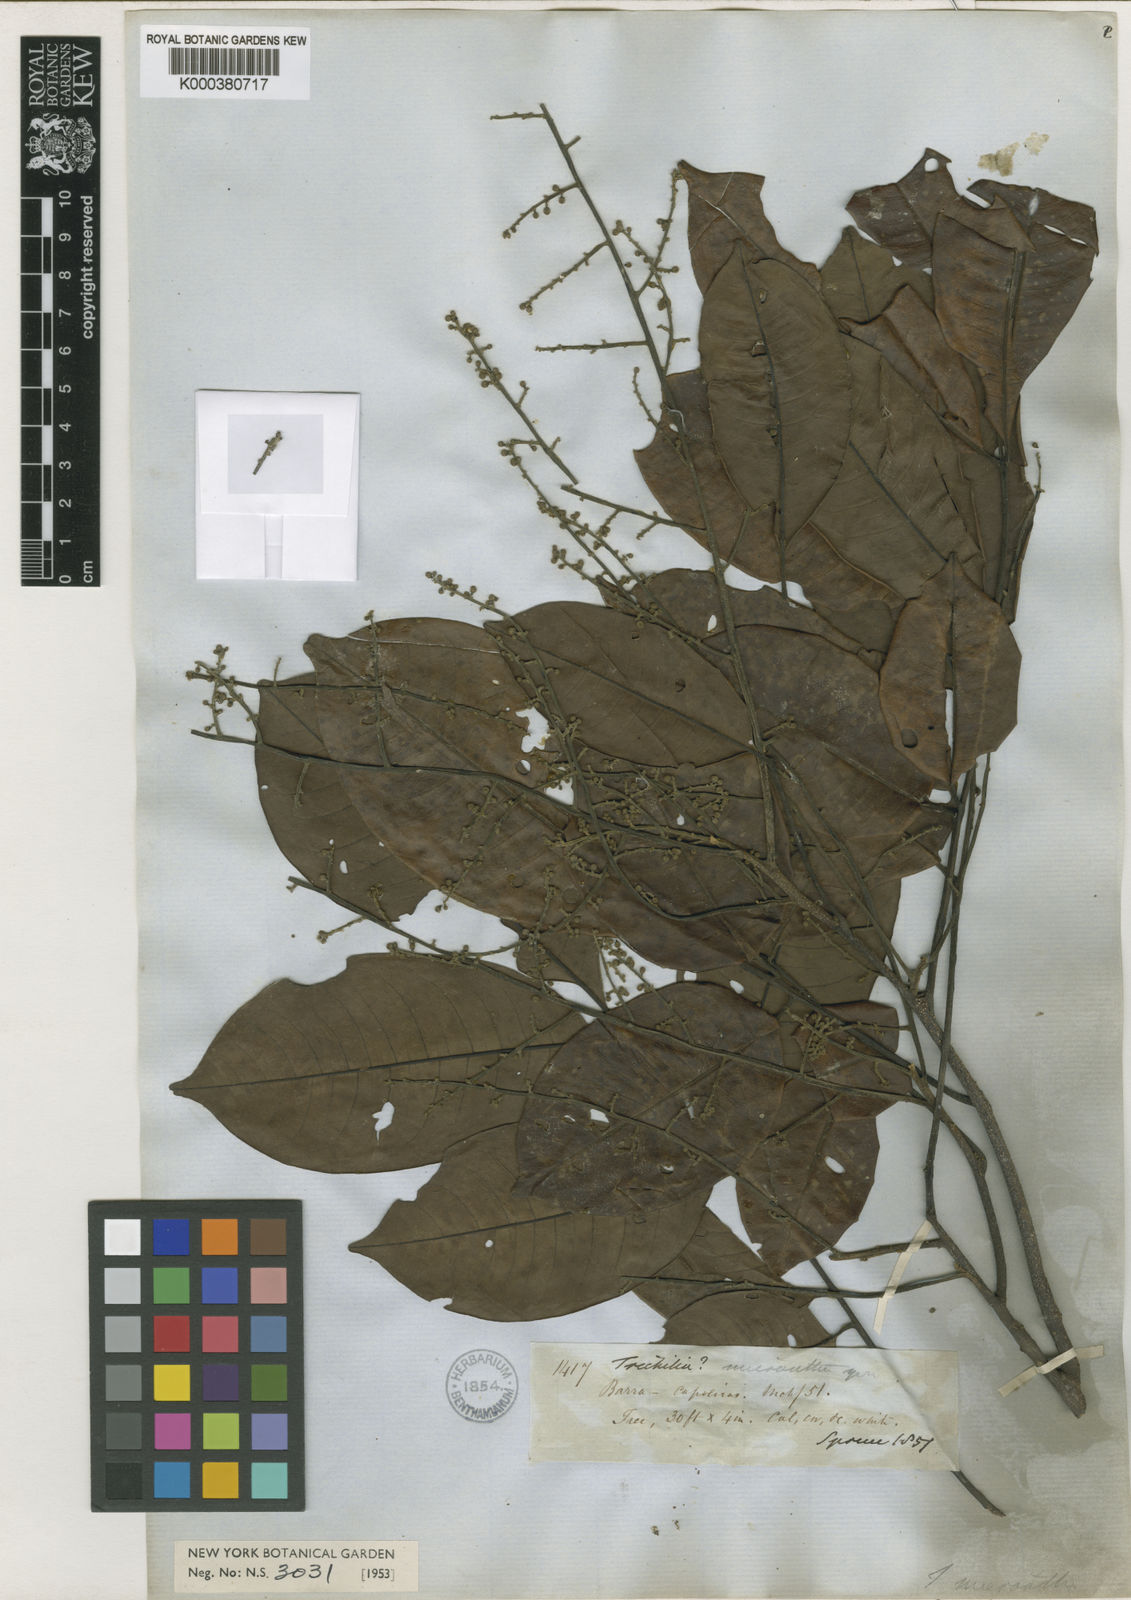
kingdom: Plantae
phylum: Tracheophyta
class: Magnoliopsida
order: Sapindales
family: Meliaceae
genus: Trichilia
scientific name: Trichilia micrantha
